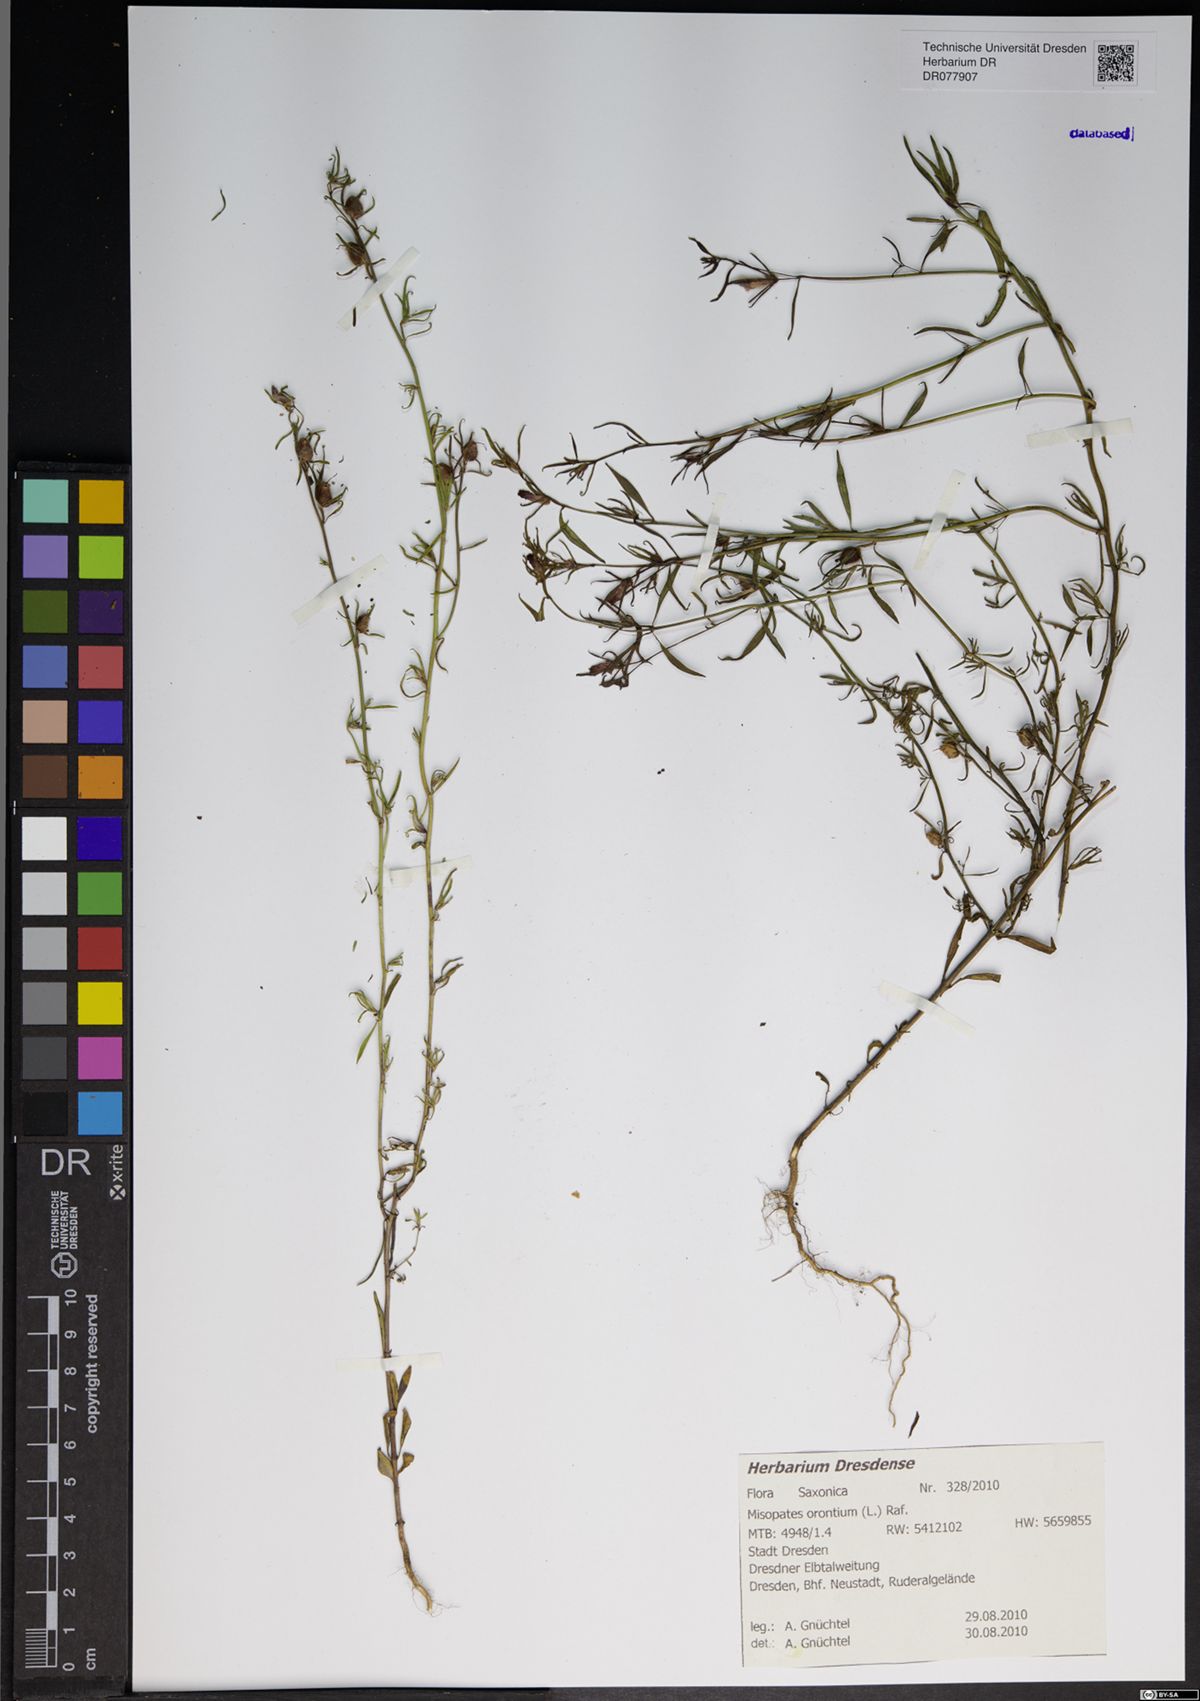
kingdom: Plantae
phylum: Tracheophyta
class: Magnoliopsida
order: Lamiales
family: Plantaginaceae
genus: Misopates
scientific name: Misopates orontium
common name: Weasel's-snout
